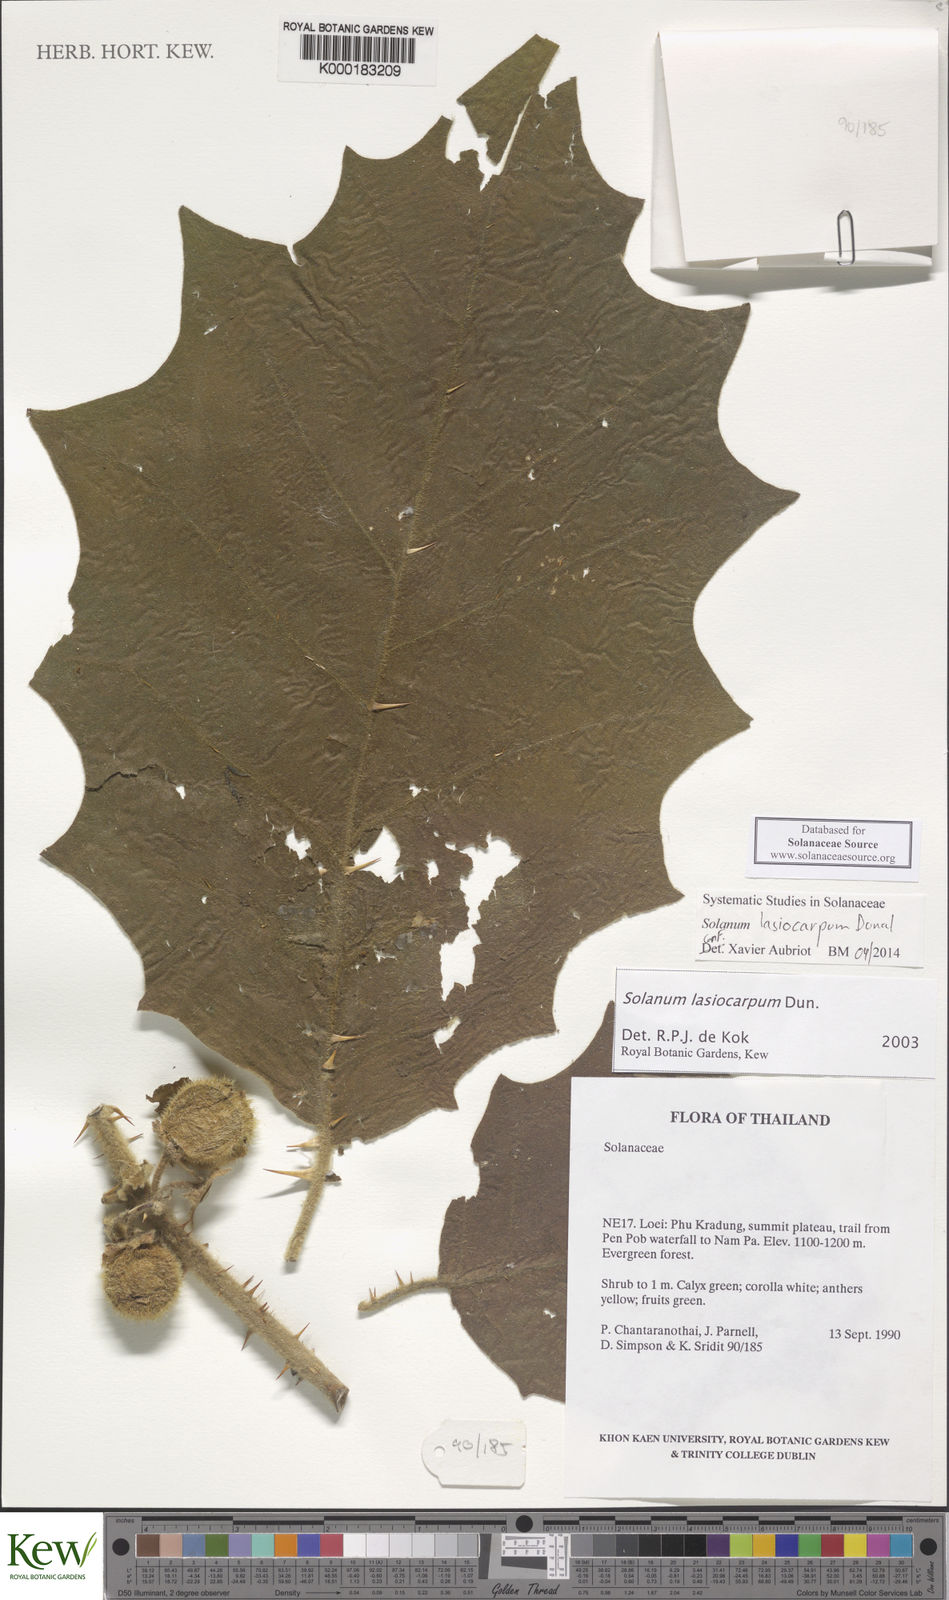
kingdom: Plantae
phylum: Tracheophyta
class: Magnoliopsida
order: Solanales
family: Solanaceae
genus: Solanum
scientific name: Solanum lasiocarpum
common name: Indian nightshade
